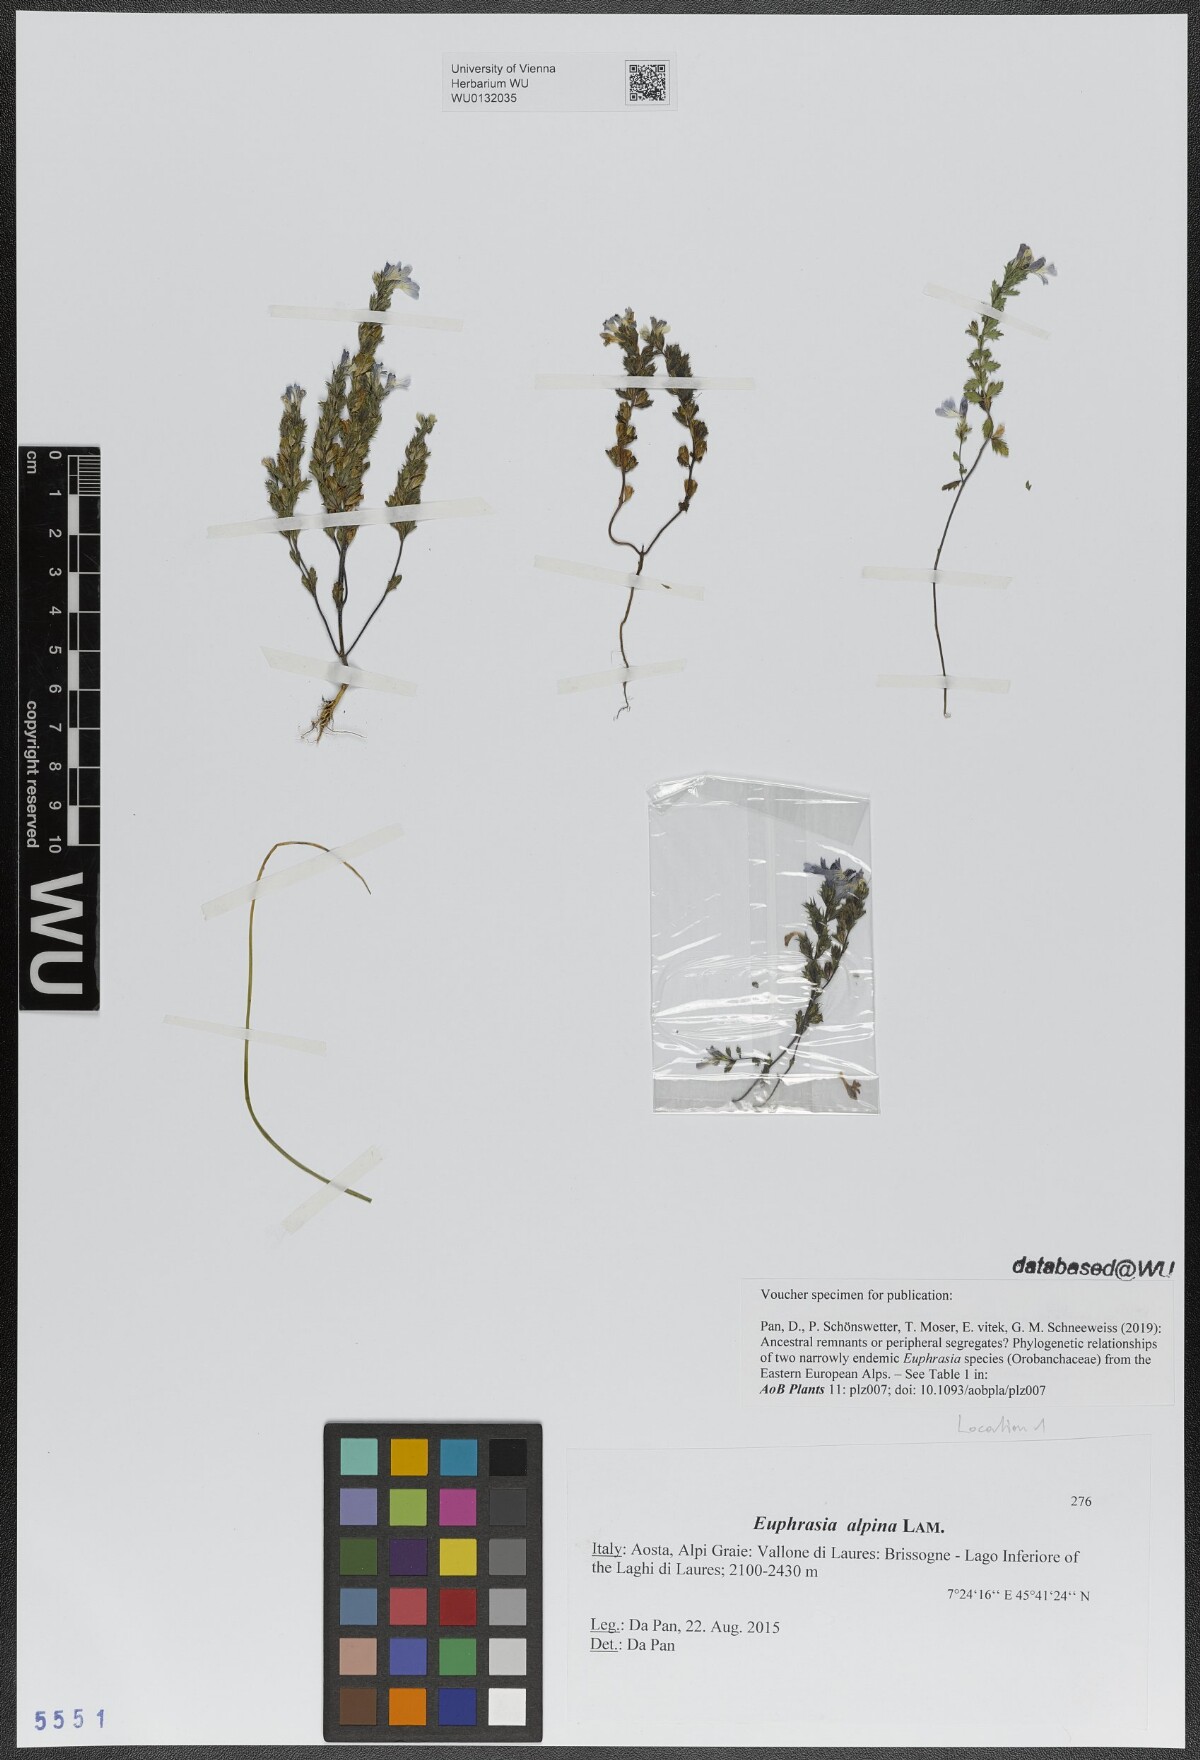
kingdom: Plantae
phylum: Tracheophyta
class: Magnoliopsida
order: Lamiales
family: Orobanchaceae
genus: Euphrasia
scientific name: Euphrasia alpina
